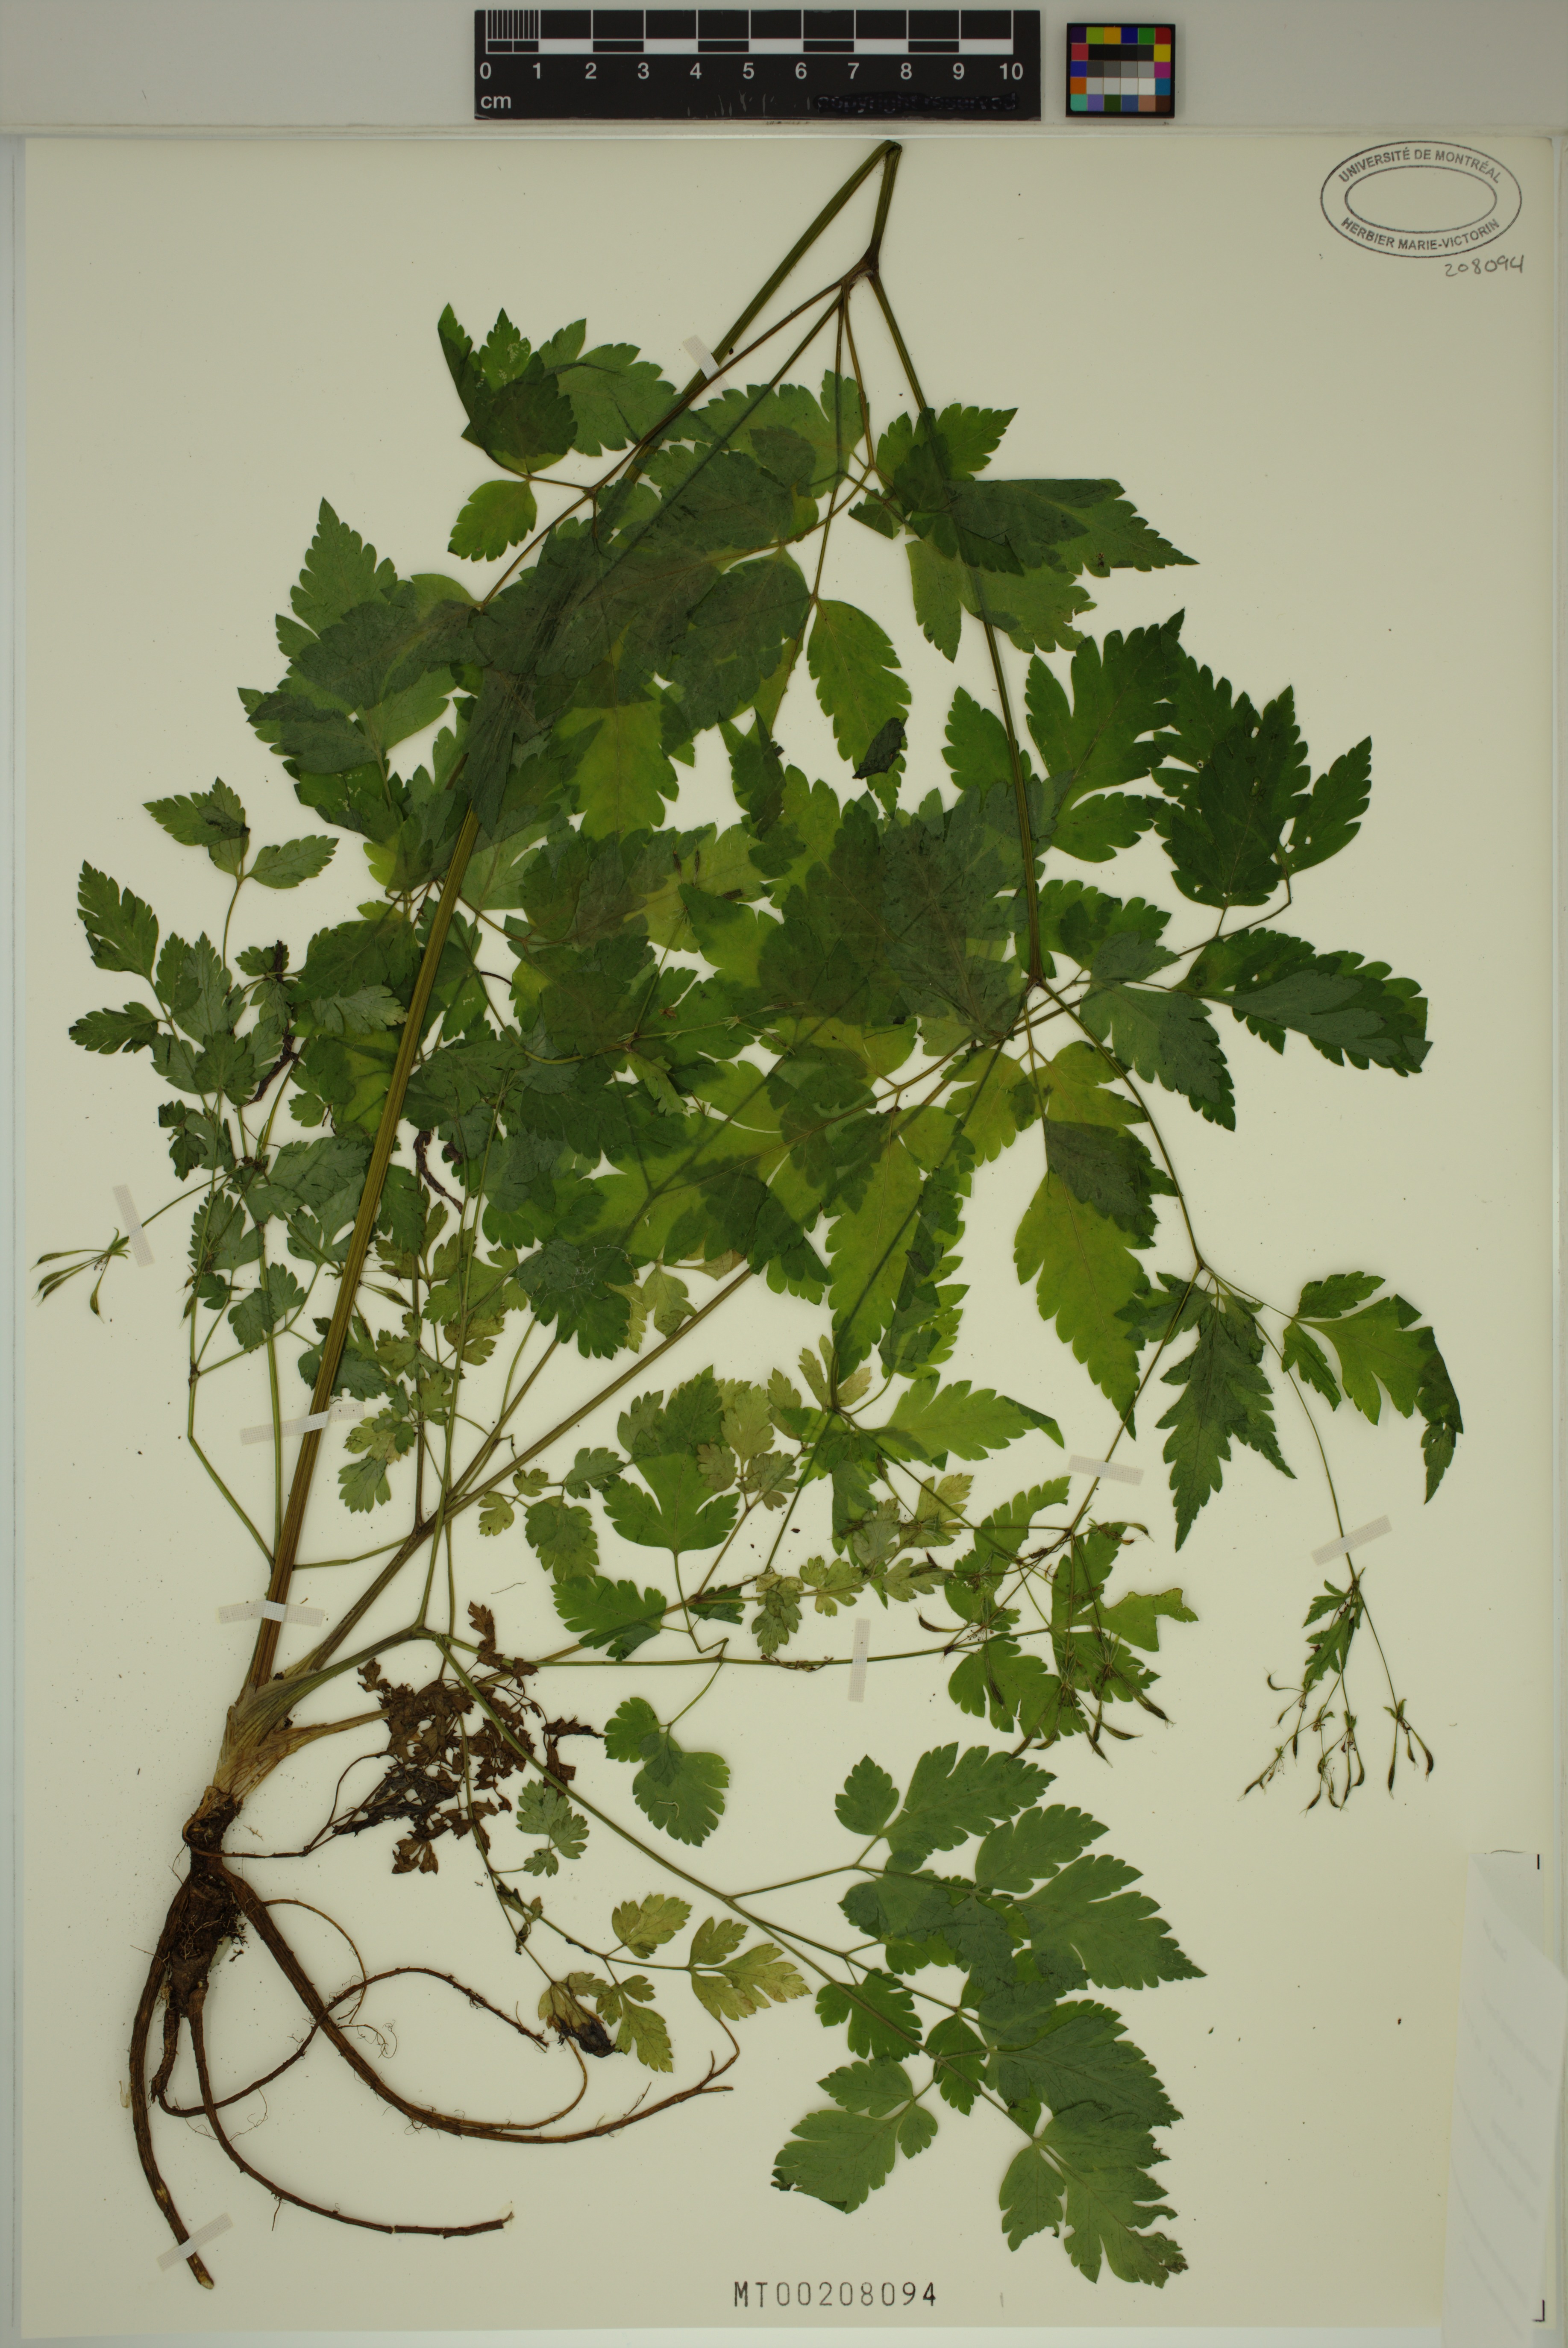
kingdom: Plantae
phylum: Tracheophyta
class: Magnoliopsida
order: Apiales
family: Apiaceae
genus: Osmorhiza
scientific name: Osmorhiza longistylis
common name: Smooth sweet cicely
